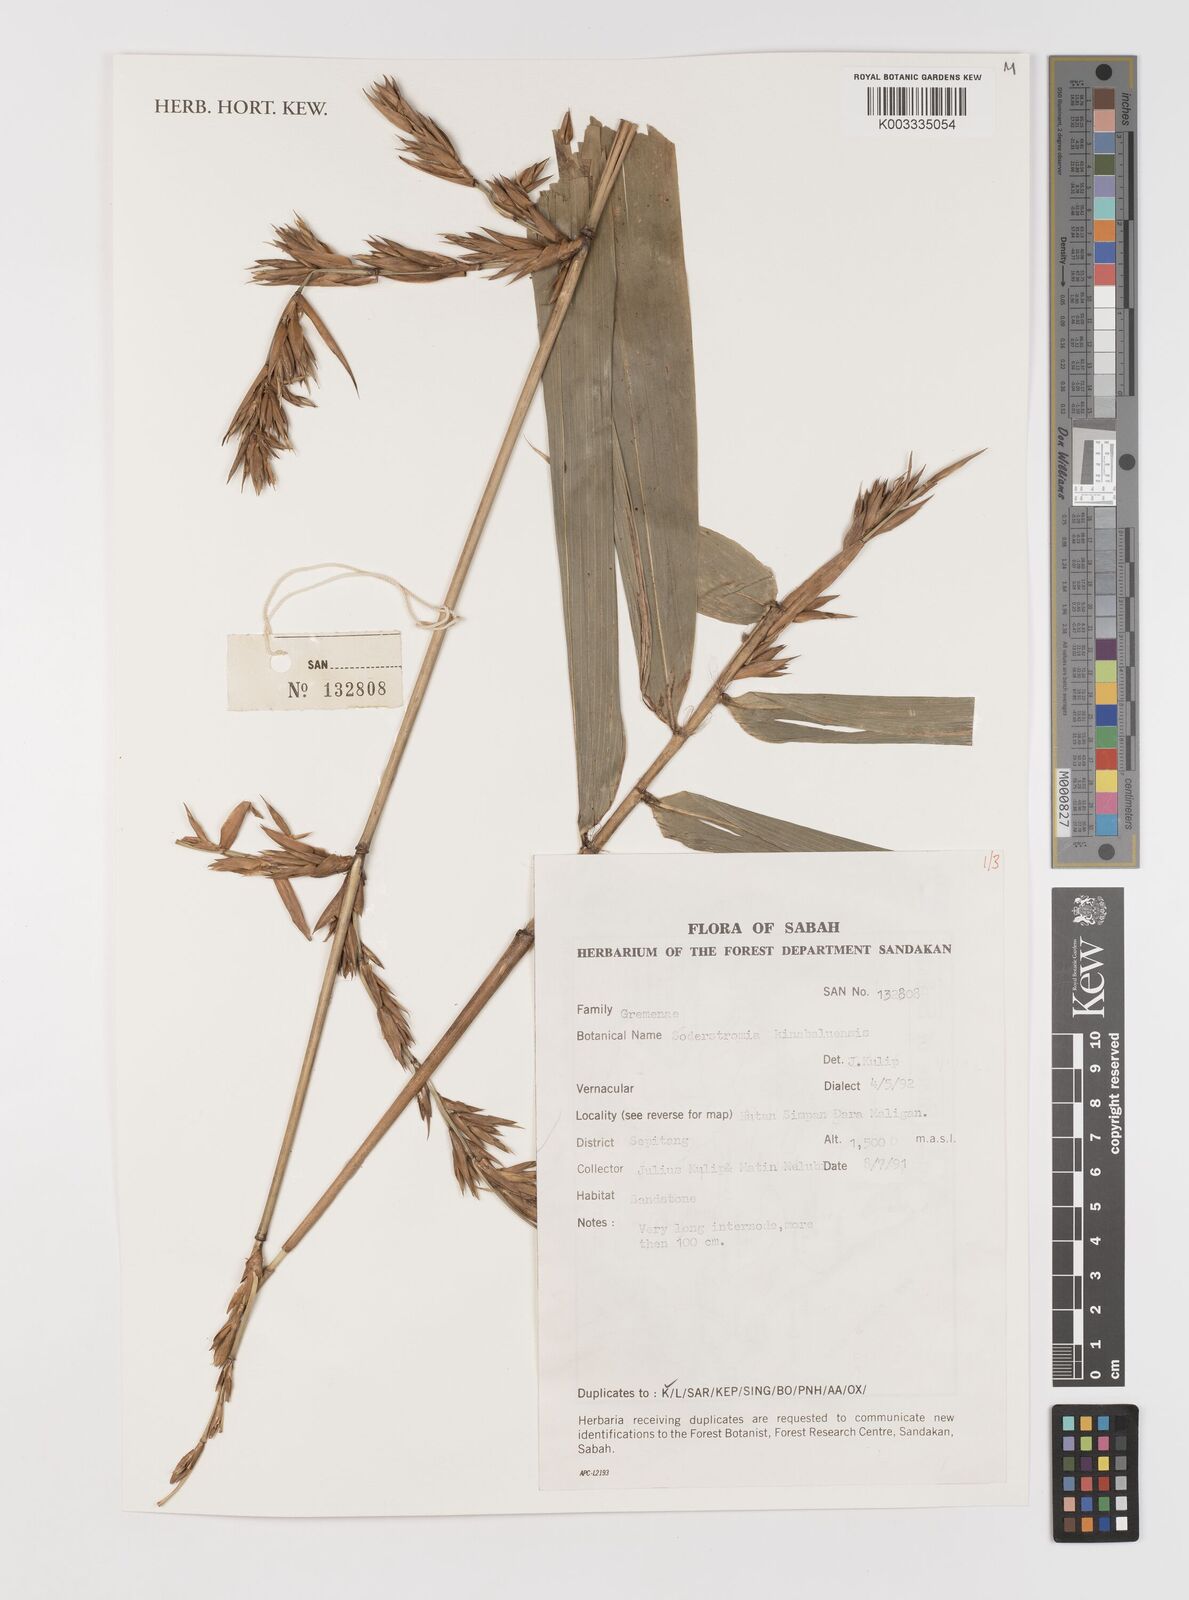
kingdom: Plantae
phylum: Tracheophyta
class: Liliopsida
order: Poales
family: Poaceae
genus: Bouteloua
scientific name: Bouteloua
